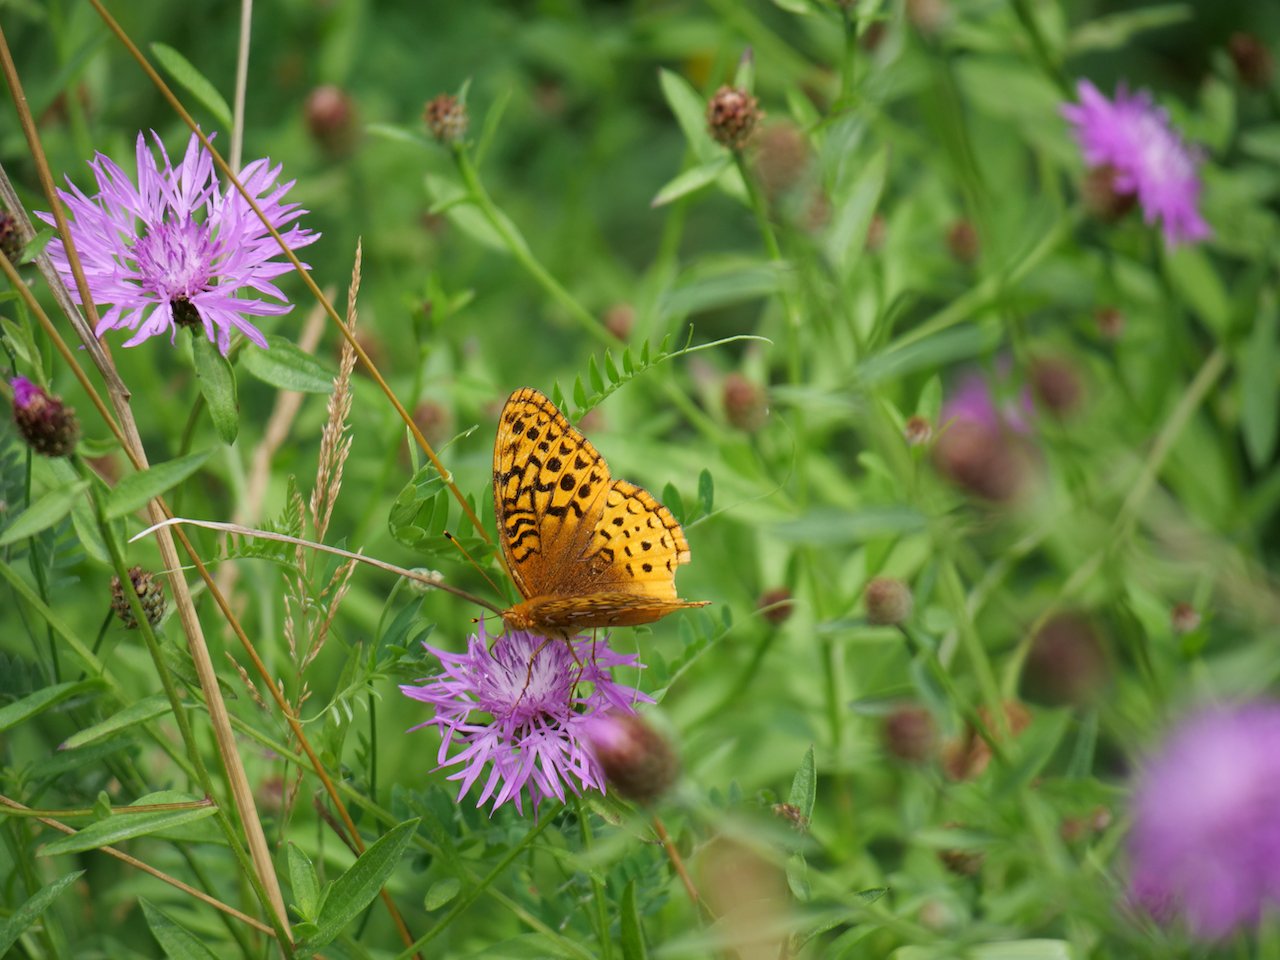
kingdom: Animalia
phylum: Arthropoda
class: Insecta
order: Lepidoptera
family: Nymphalidae
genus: Speyeria
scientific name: Speyeria cybele
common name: Great Spangled Fritillary
